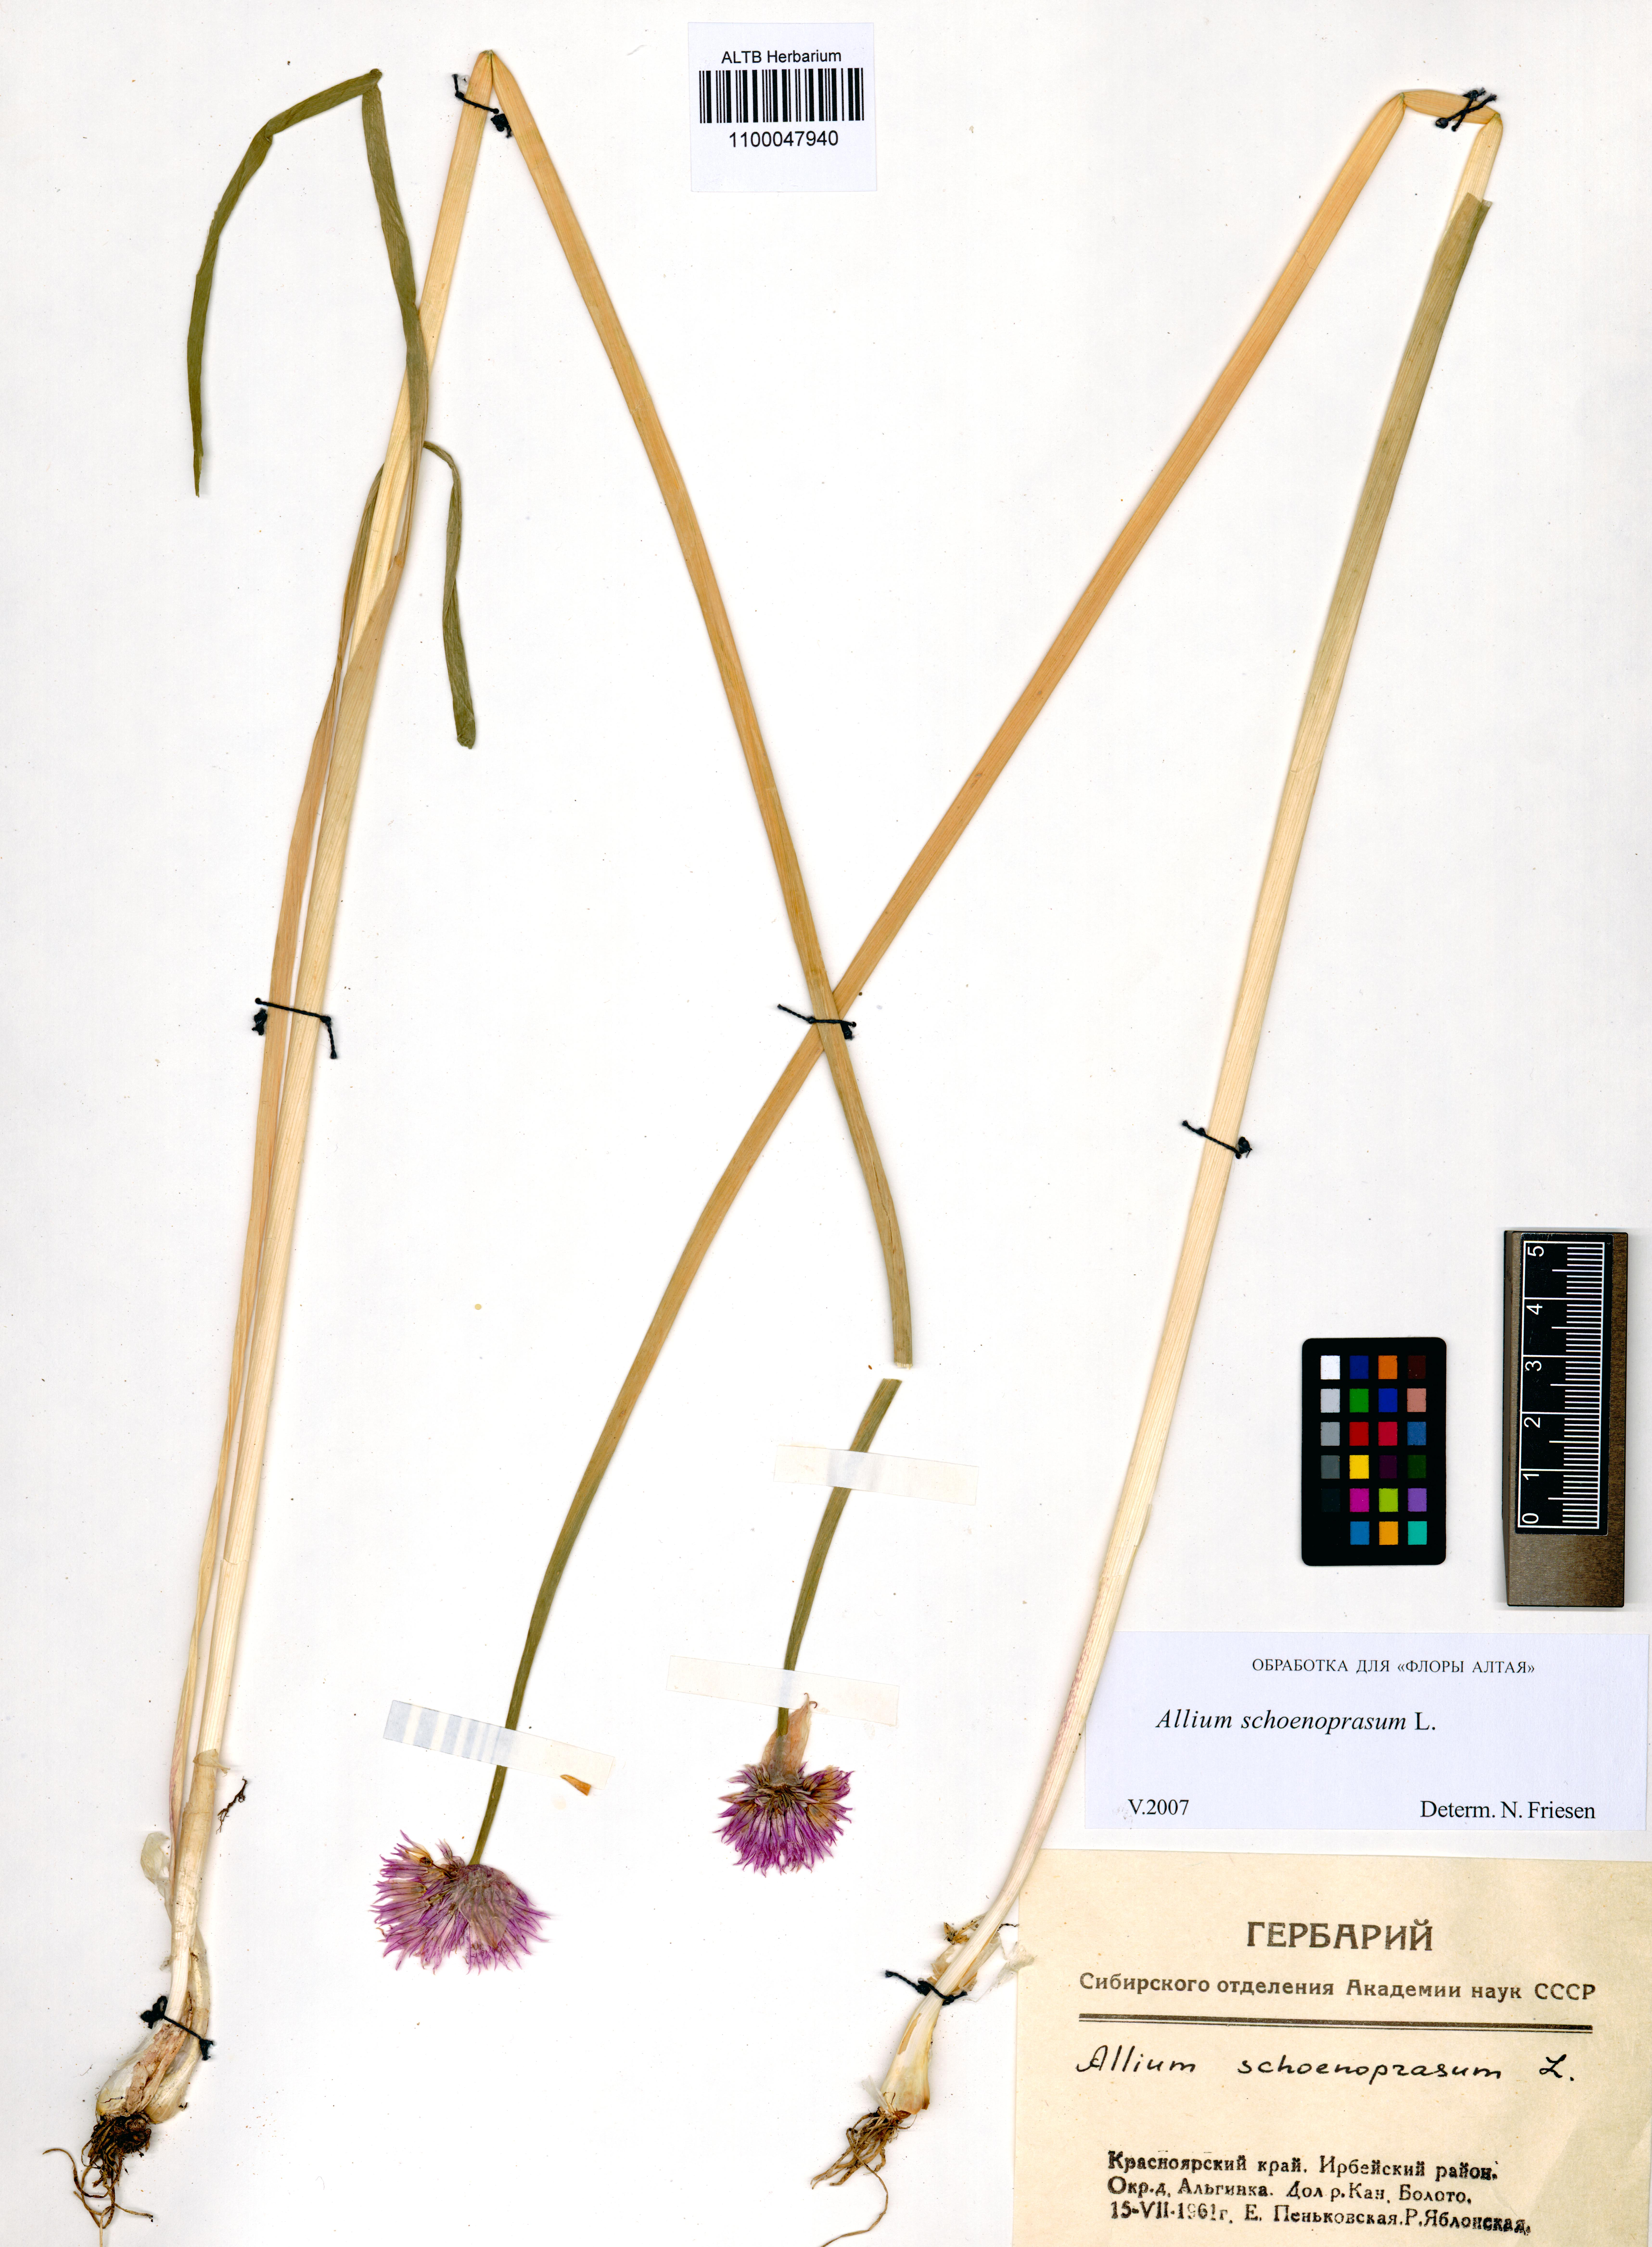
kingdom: Plantae
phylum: Tracheophyta
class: Liliopsida
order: Asparagales
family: Amaryllidaceae
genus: Allium
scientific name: Allium schoenoprasum
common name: Chives
